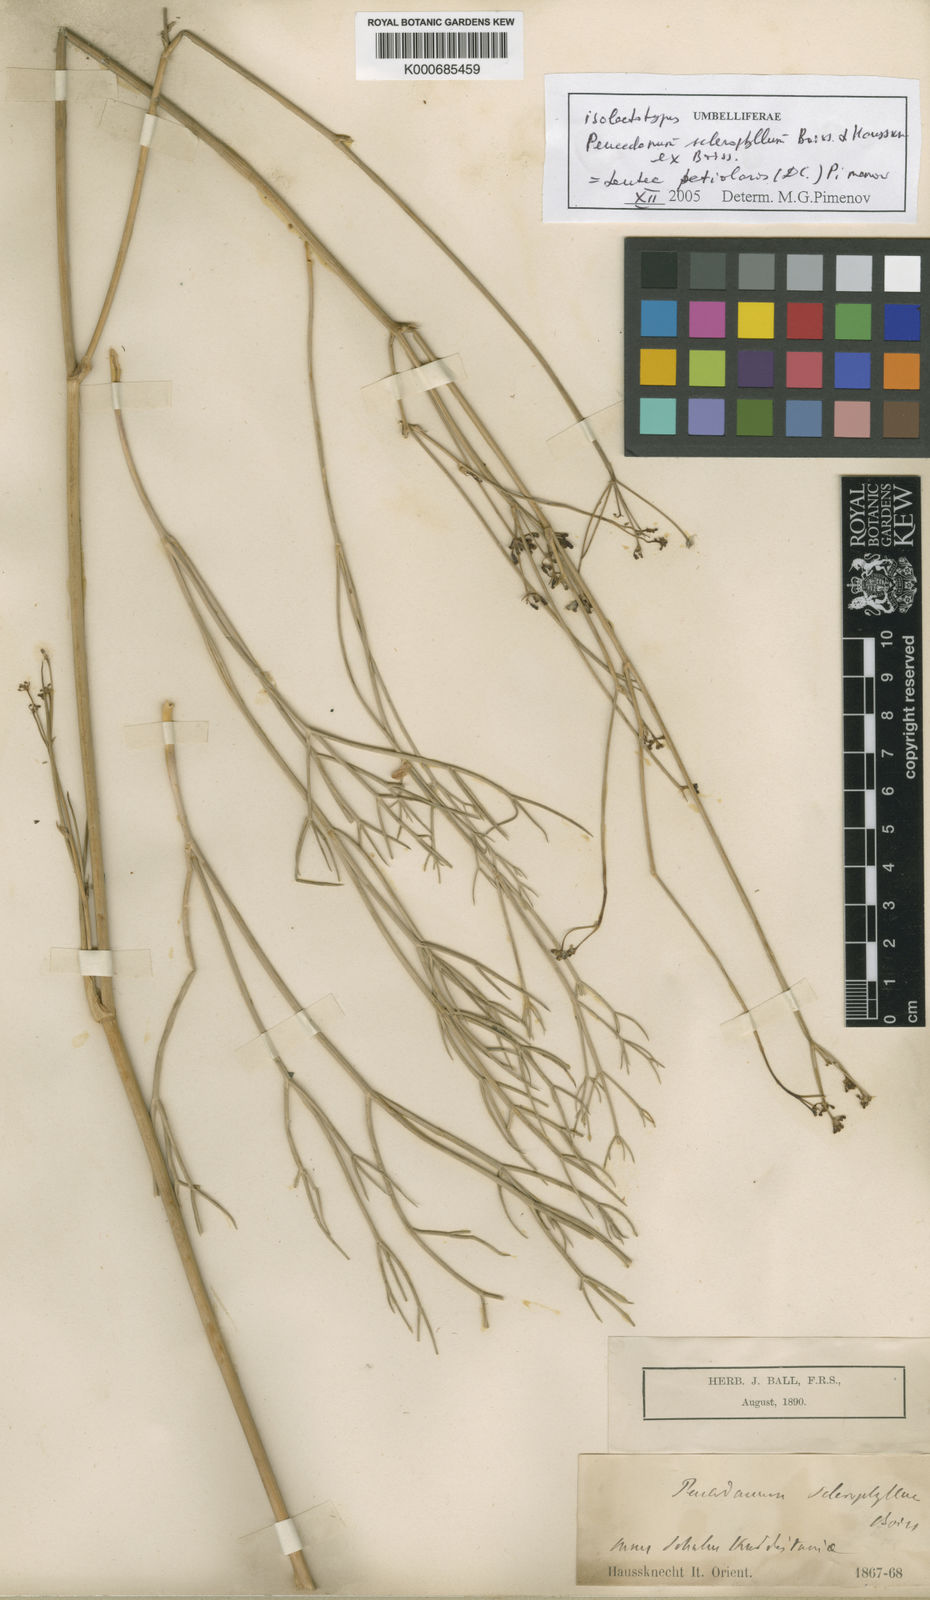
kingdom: Plantae
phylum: Tracheophyta
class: Magnoliopsida
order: Apiales
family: Apiaceae
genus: Leutea
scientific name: Leutea sclerophylla
